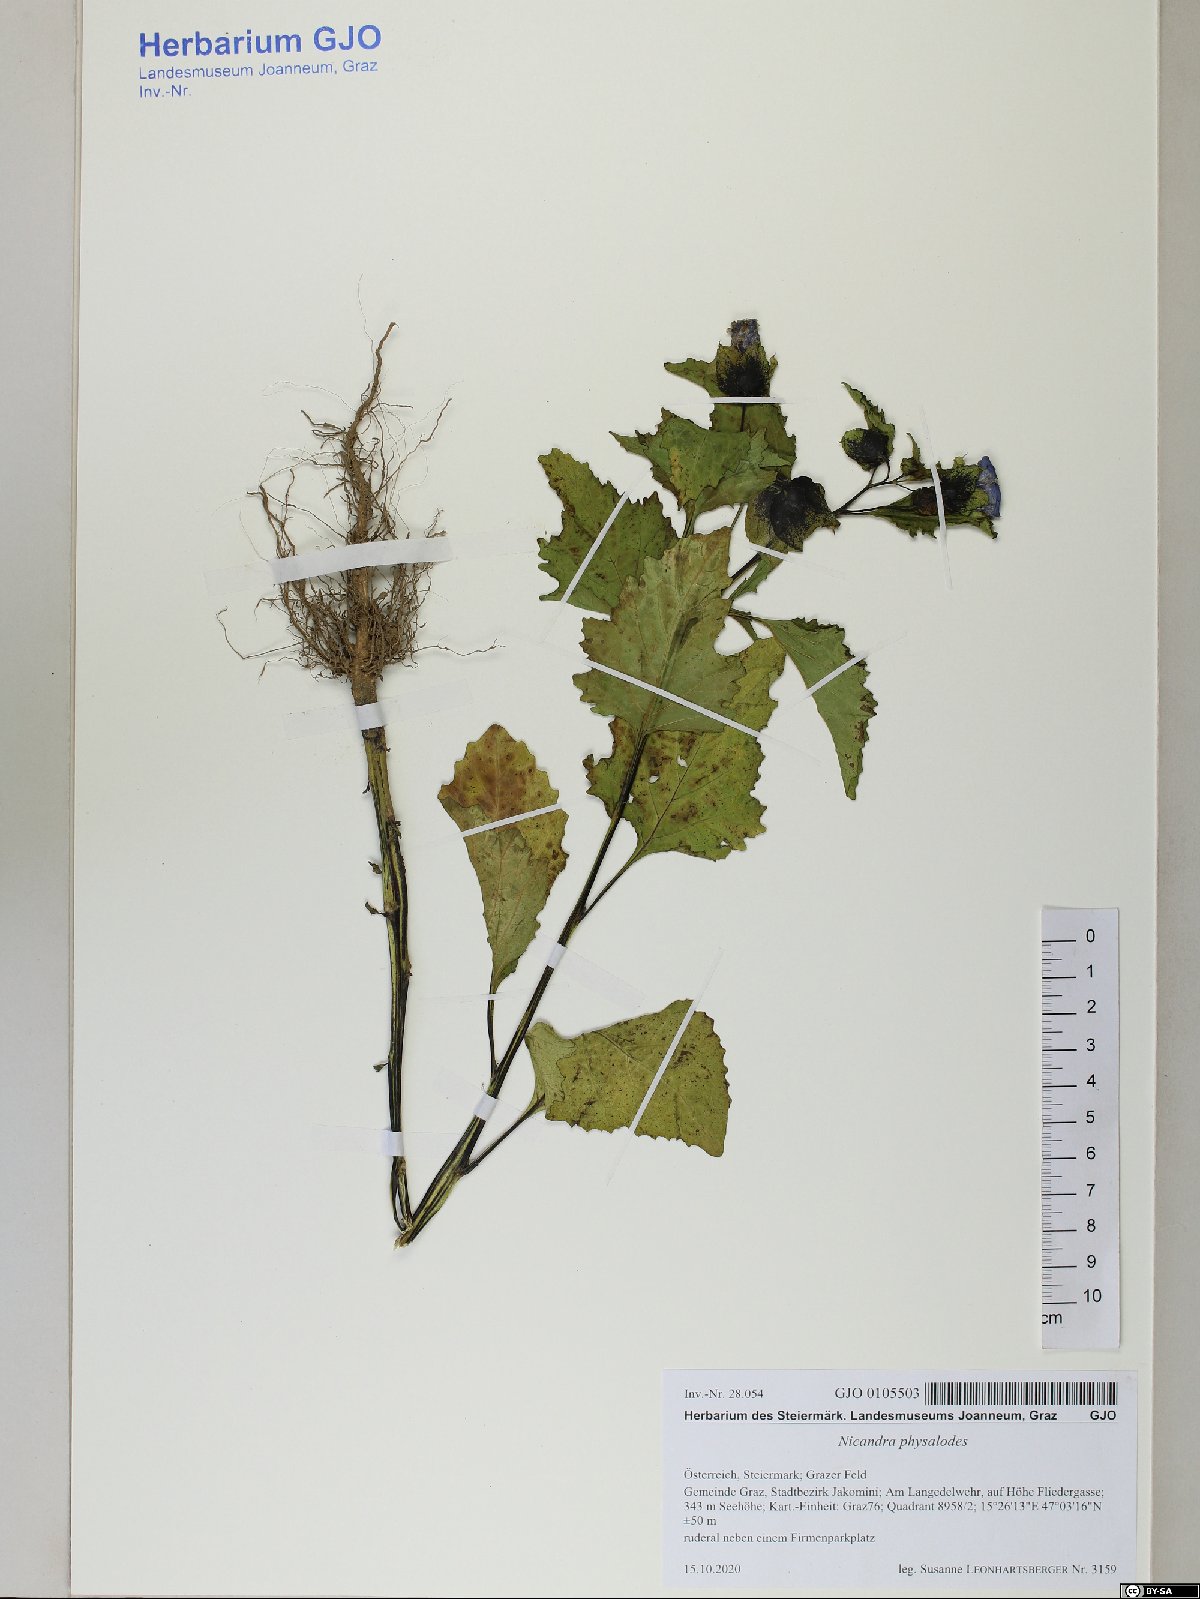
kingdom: Plantae
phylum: Tracheophyta
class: Magnoliopsida
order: Solanales
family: Solanaceae
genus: Nicandra
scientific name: Nicandra physalodes
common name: Apple-of-peru
